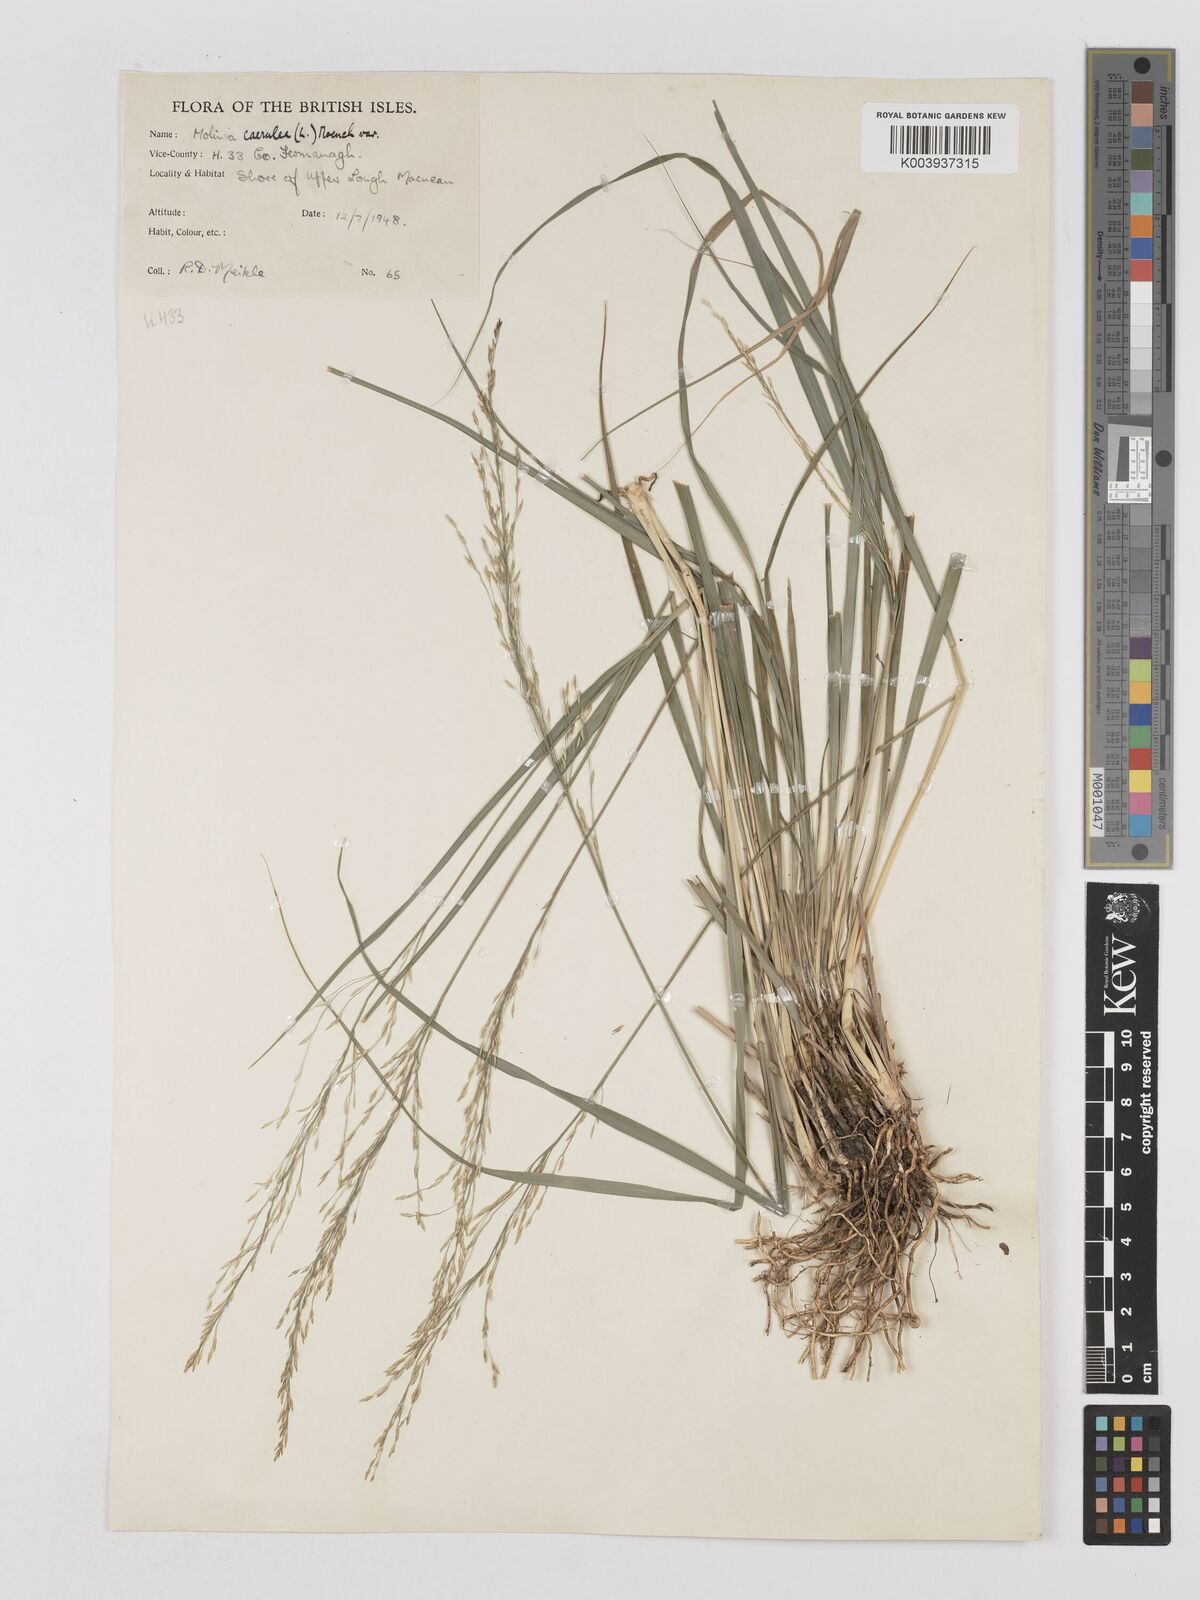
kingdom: Plantae
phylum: Tracheophyta
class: Liliopsida
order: Poales
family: Poaceae
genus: Molinia
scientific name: Molinia caerulea
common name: Purple moor-grass
